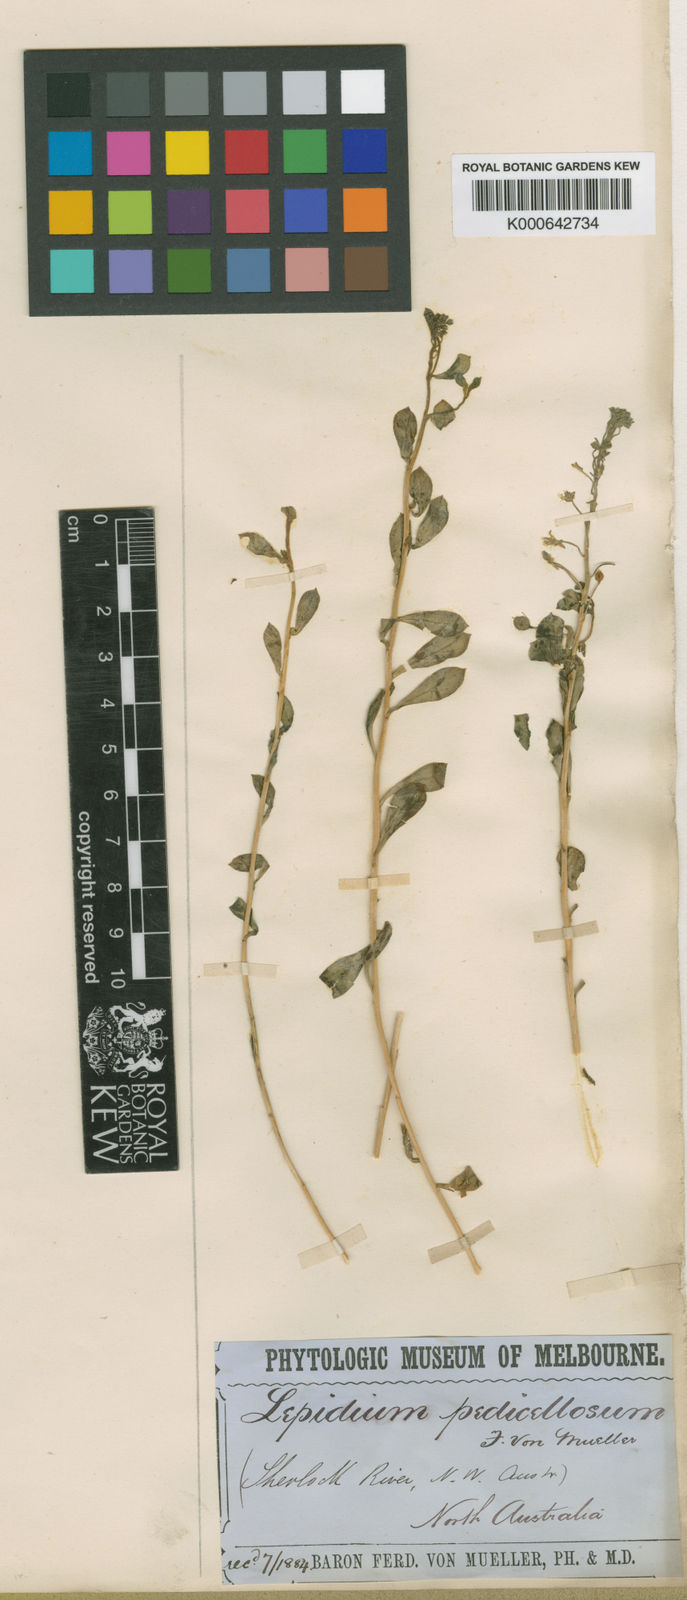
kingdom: Plantae
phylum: Tracheophyta
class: Magnoliopsida
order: Brassicales
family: Brassicaceae
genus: Lepidium
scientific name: Lepidium pedicellosum
